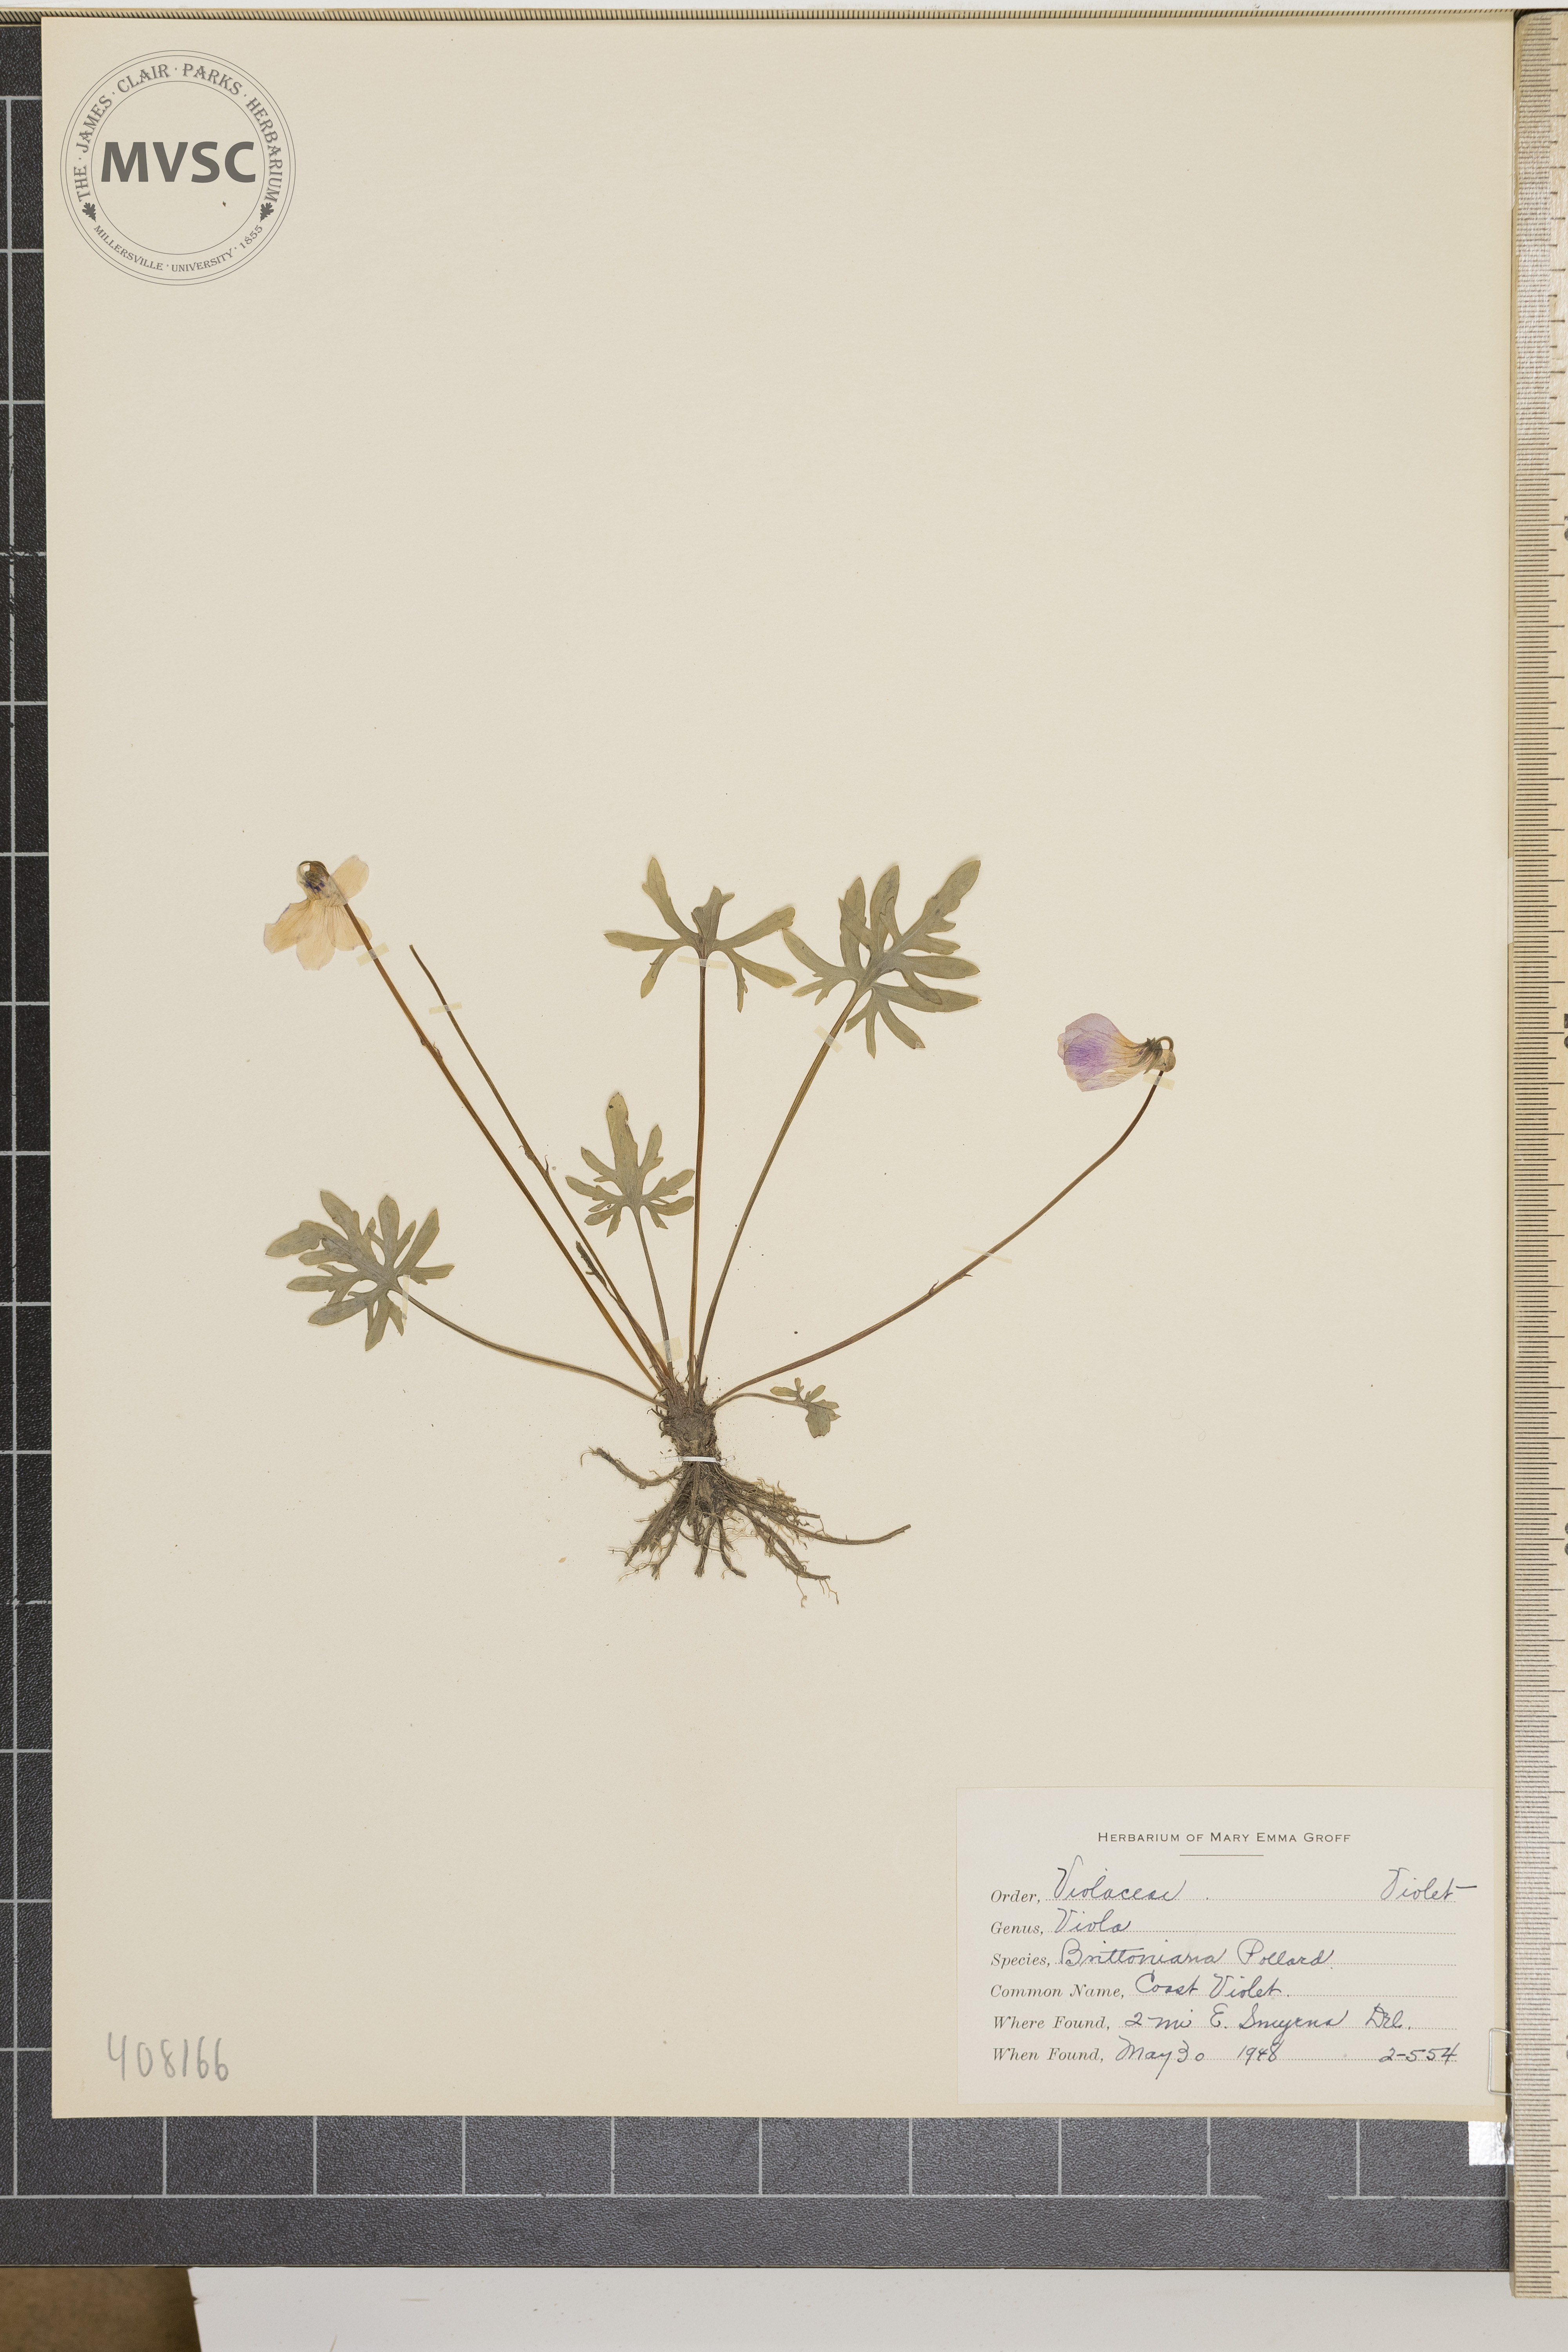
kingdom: Plantae
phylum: Tracheophyta
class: Magnoliopsida
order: Malpighiales
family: Violaceae
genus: Viola
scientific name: Viola brittoniana
